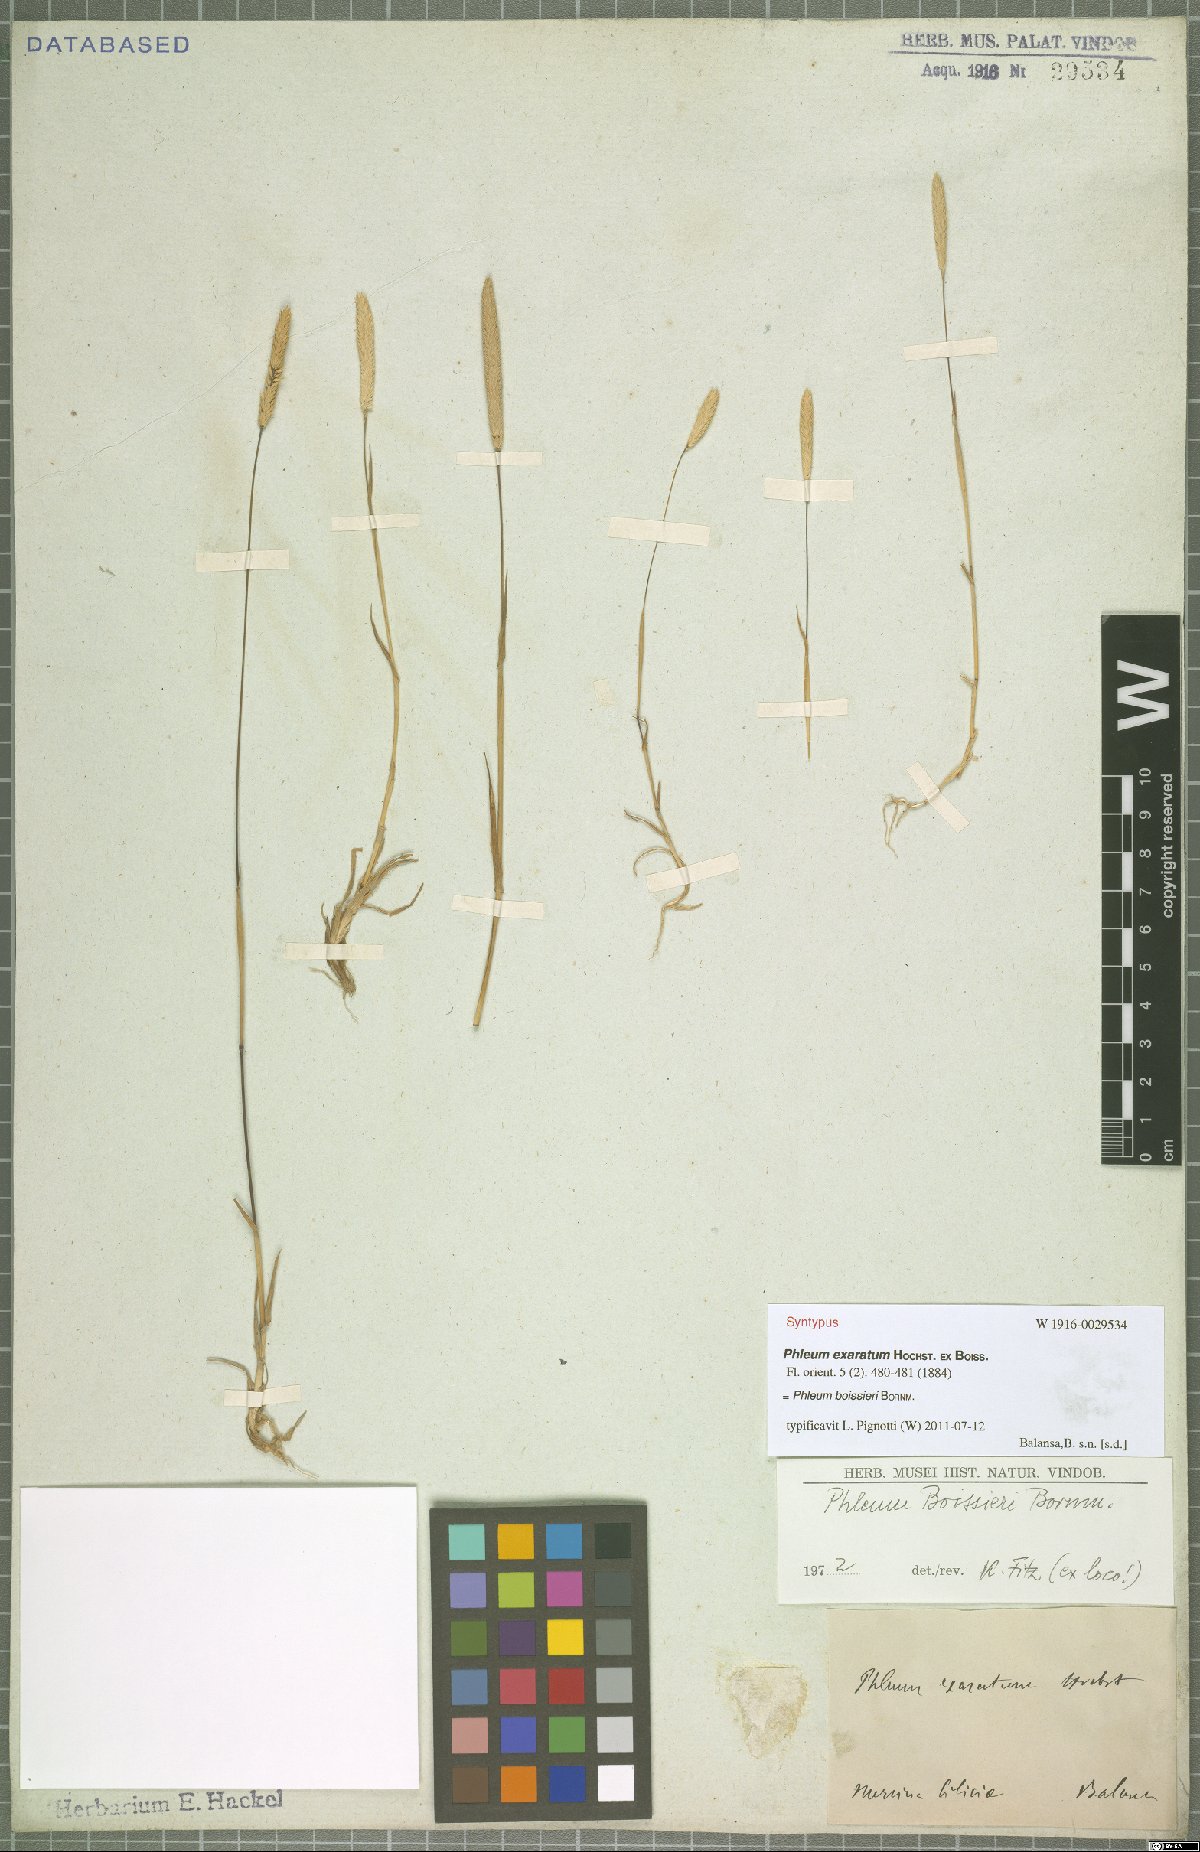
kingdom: Plantae
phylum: Tracheophyta
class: Liliopsida
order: Poales
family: Poaceae
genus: Phleum
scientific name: Phleum boissieri
